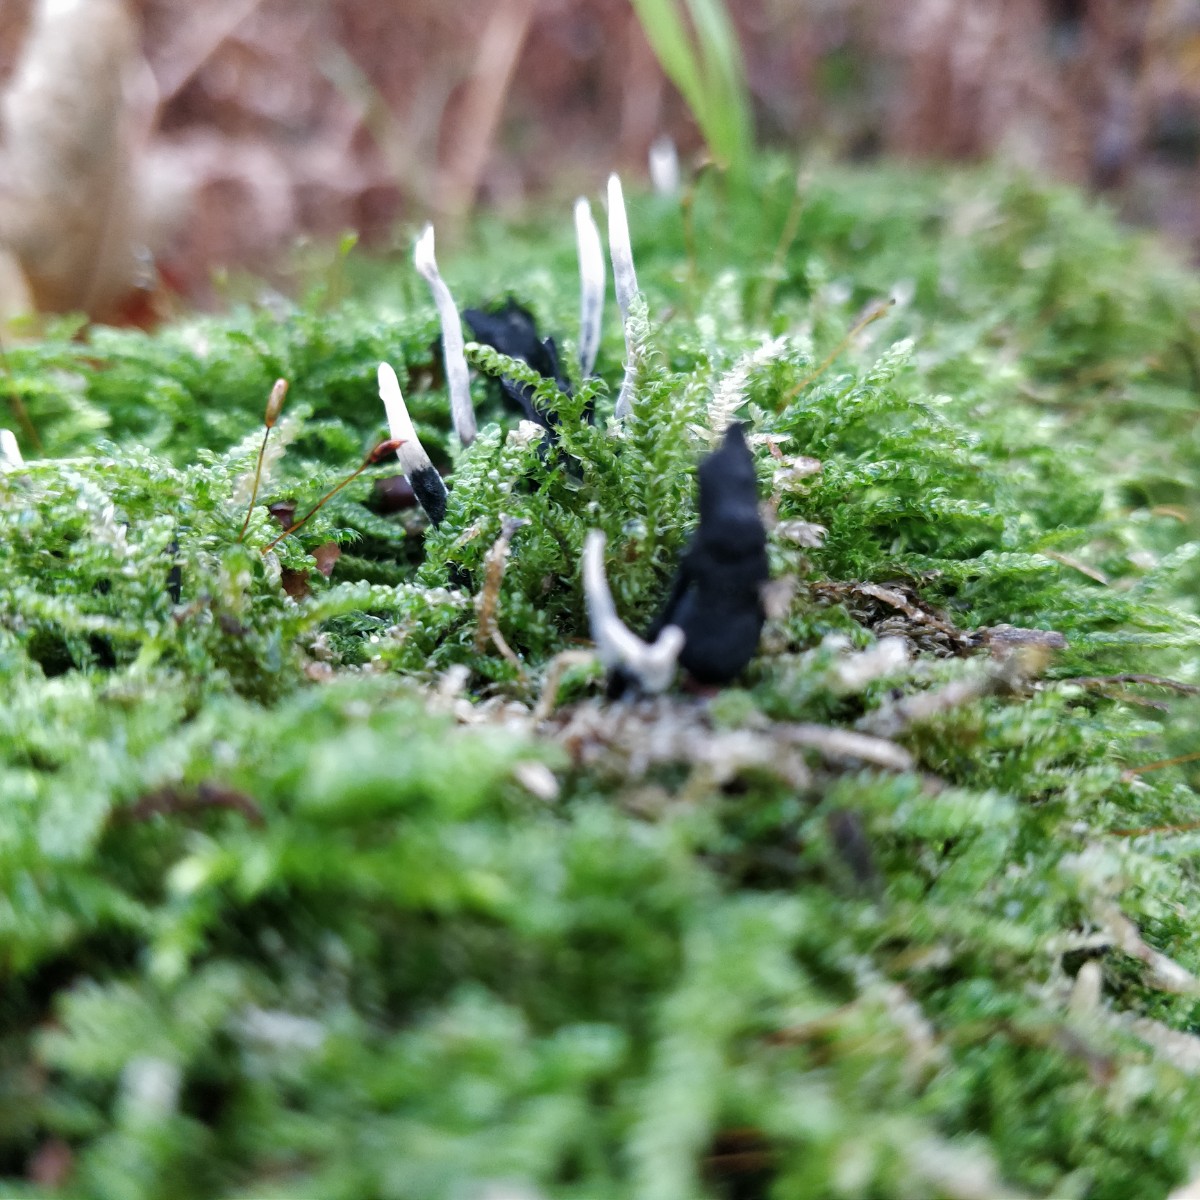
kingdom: Fungi
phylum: Ascomycota
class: Sordariomycetes
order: Xylariales
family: Xylariaceae
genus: Xylaria
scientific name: Xylaria hypoxylon
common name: grenet stødsvamp
